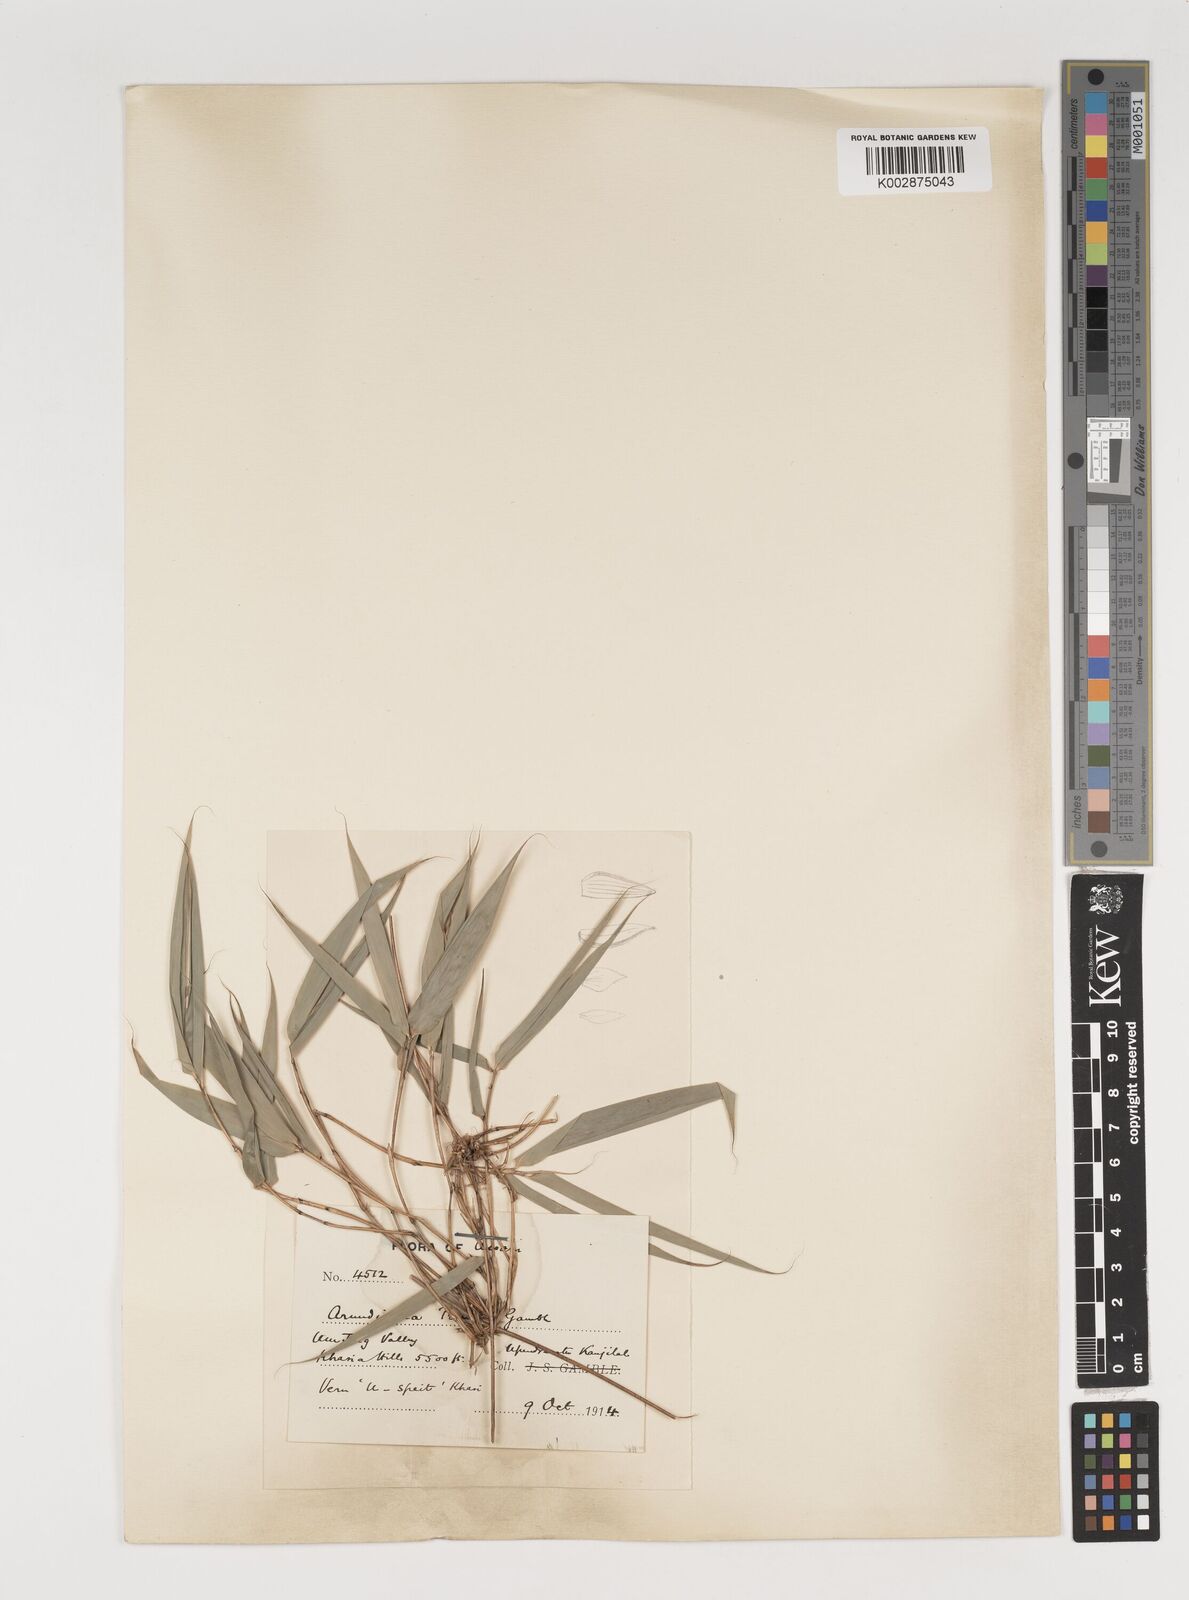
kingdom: Plantae
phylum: Tracheophyta
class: Liliopsida
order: Poales
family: Poaceae
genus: Neomicrocalamus
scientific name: Neomicrocalamus prainii
